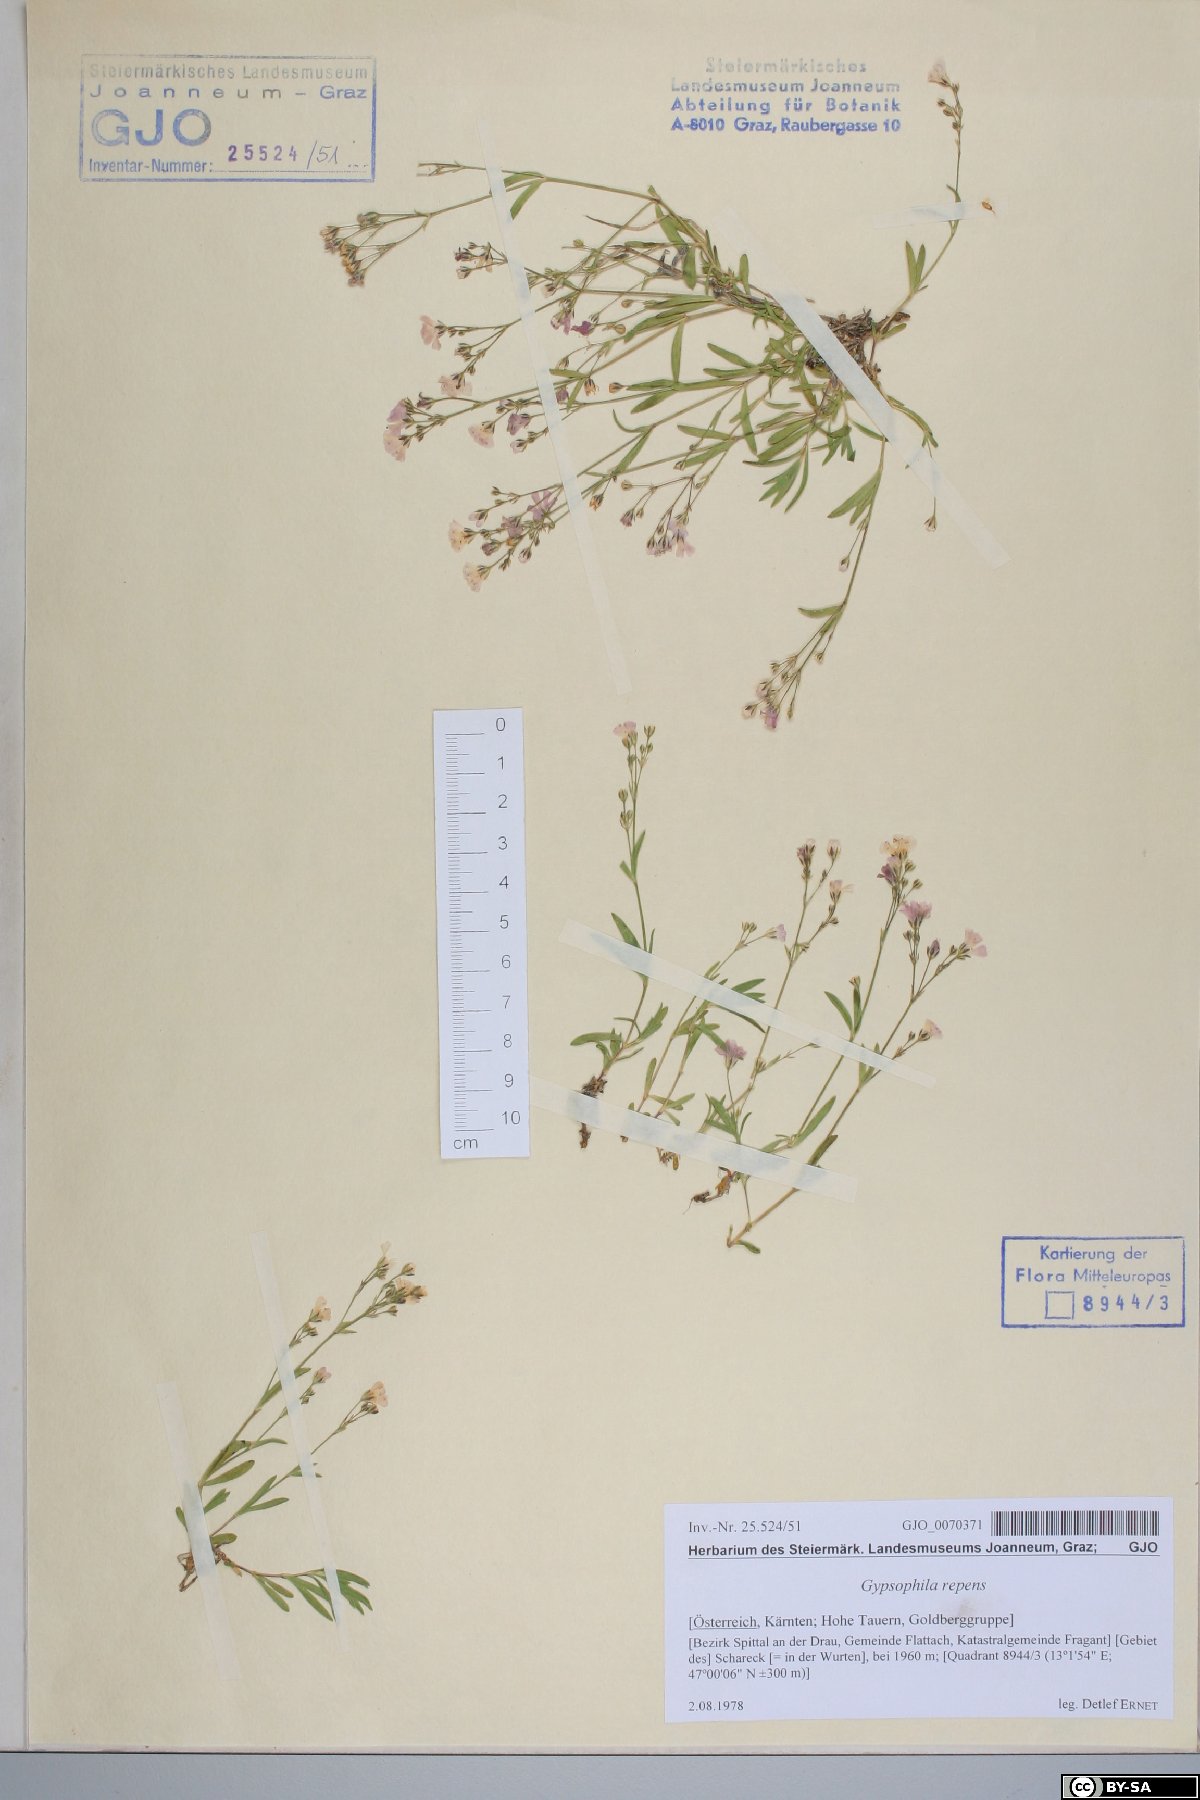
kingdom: Plantae
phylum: Tracheophyta
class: Magnoliopsida
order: Caryophyllales
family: Caryophyllaceae
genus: Gypsophila
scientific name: Gypsophila repens
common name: Creeping baby's-breath
